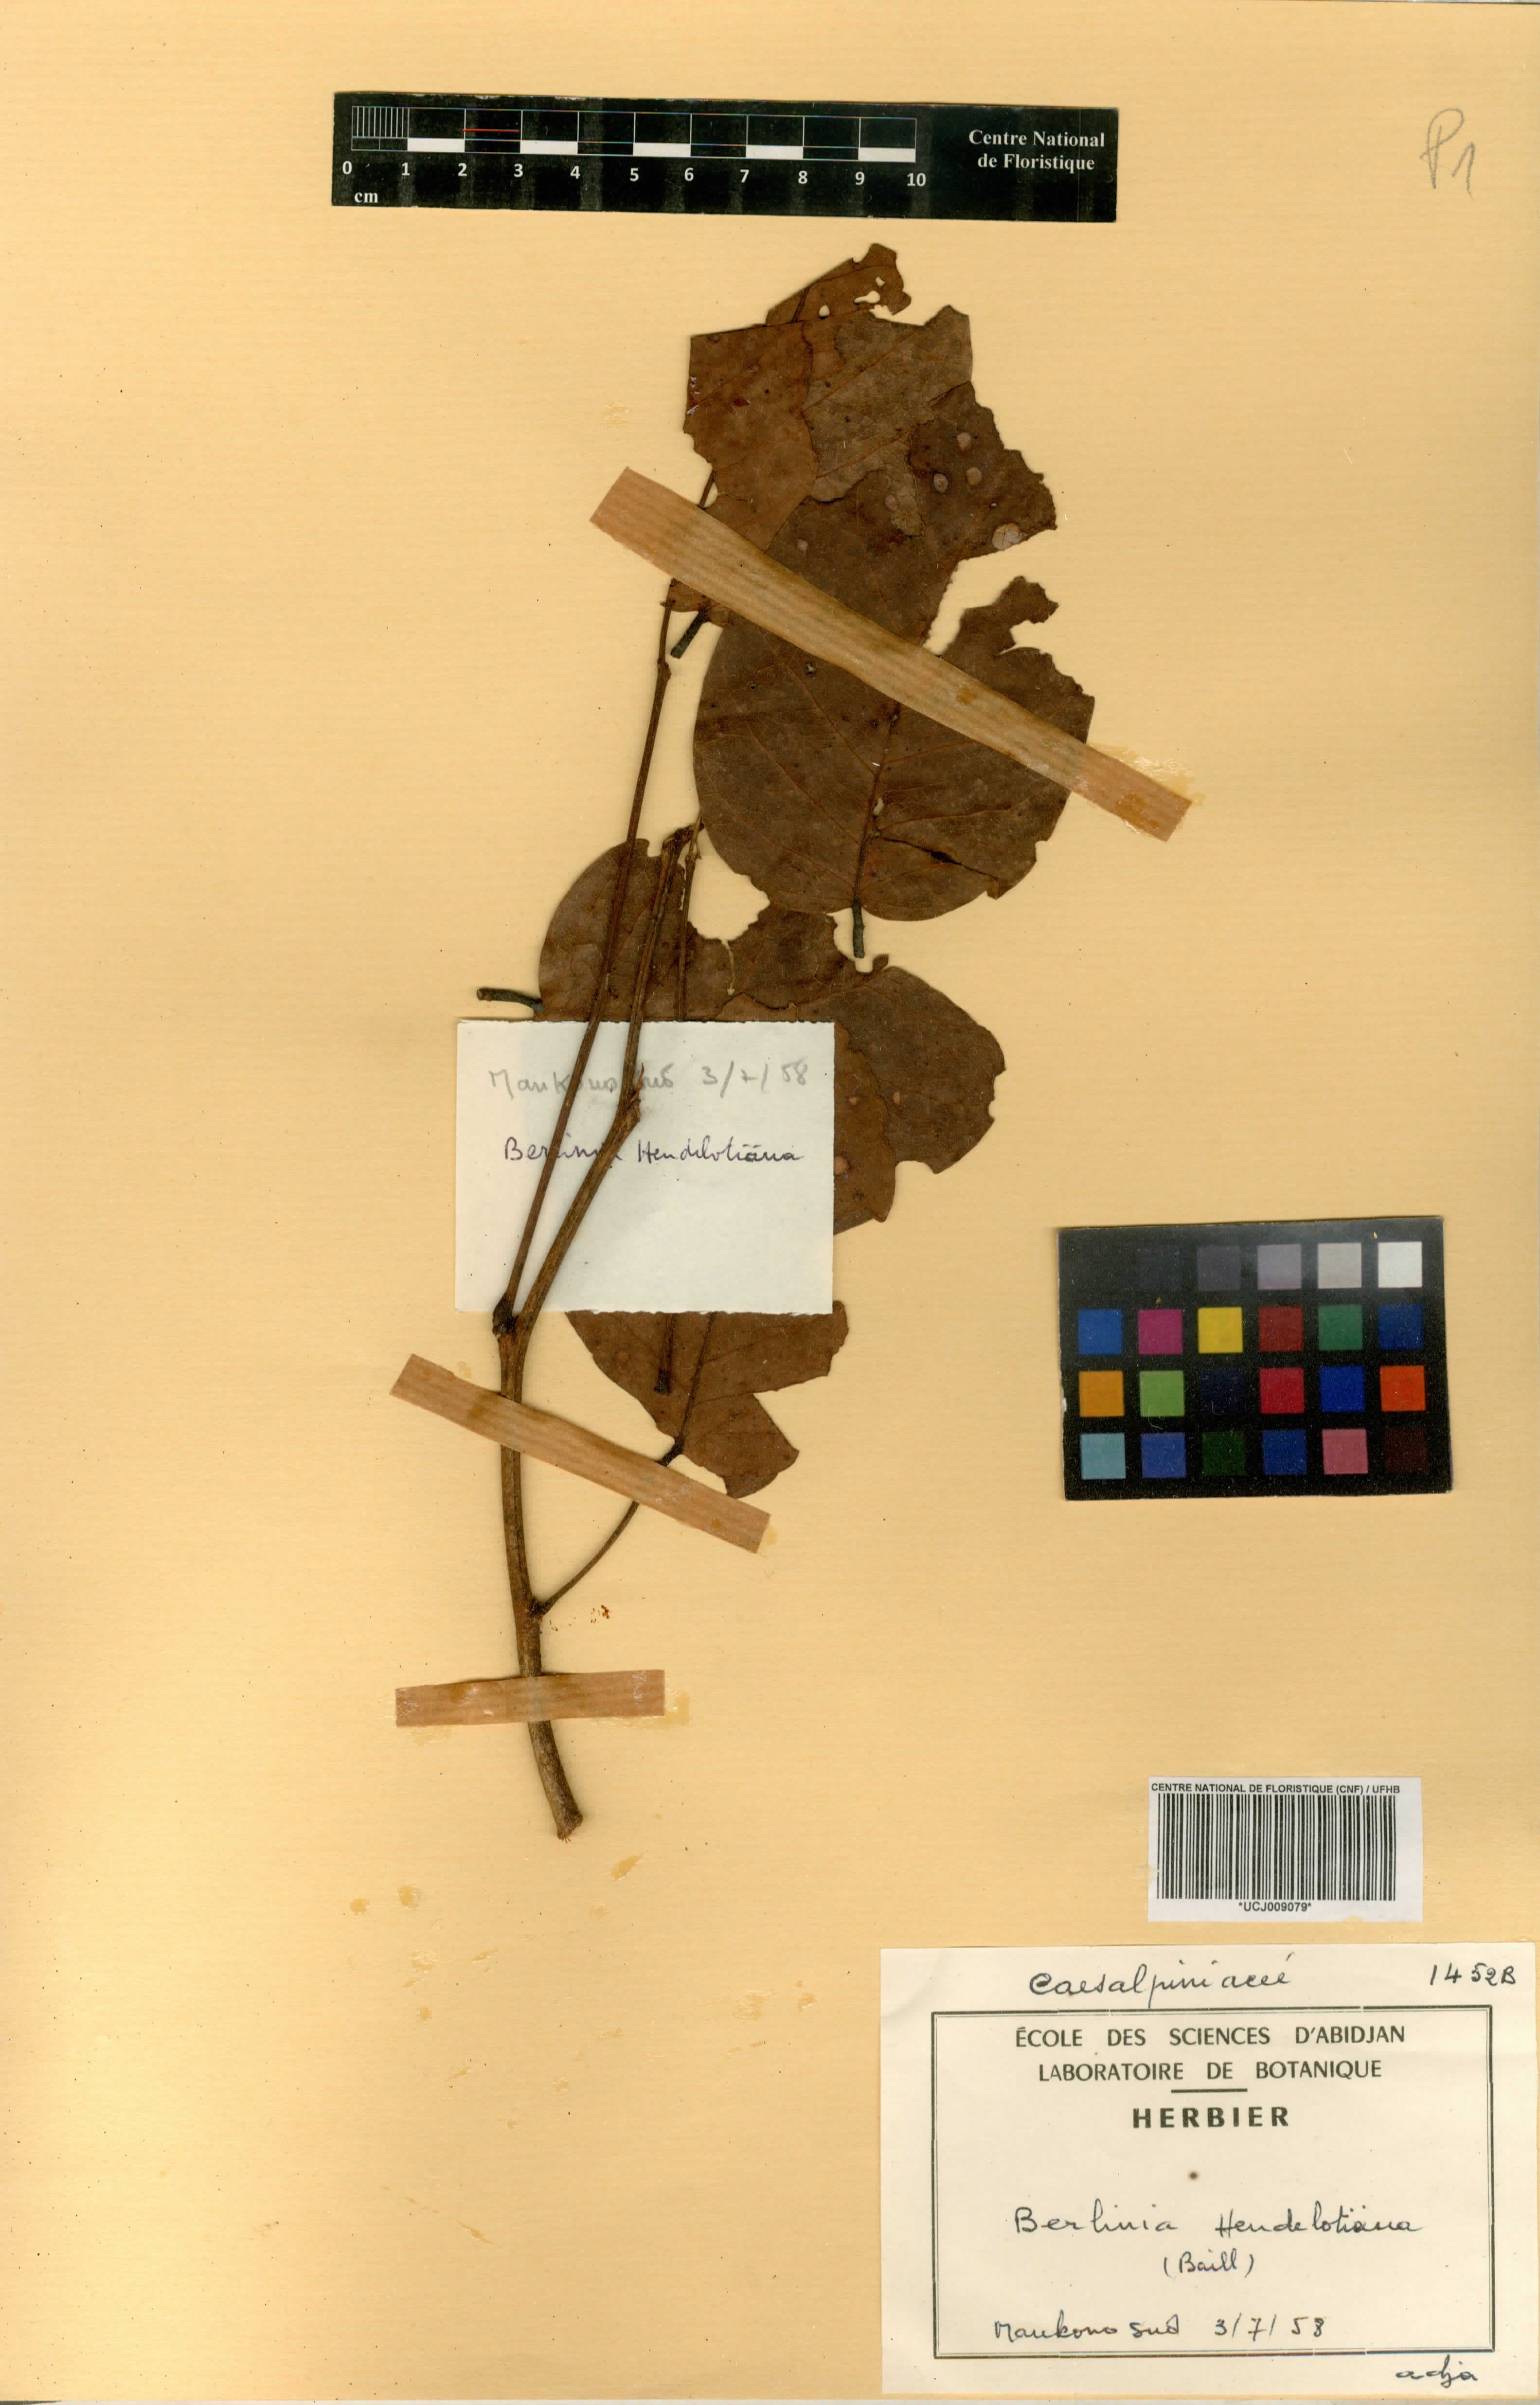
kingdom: Plantae
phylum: Tracheophyta
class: Magnoliopsida
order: Fabales
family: Fabaceae
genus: Berlinia
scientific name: Berlinia
